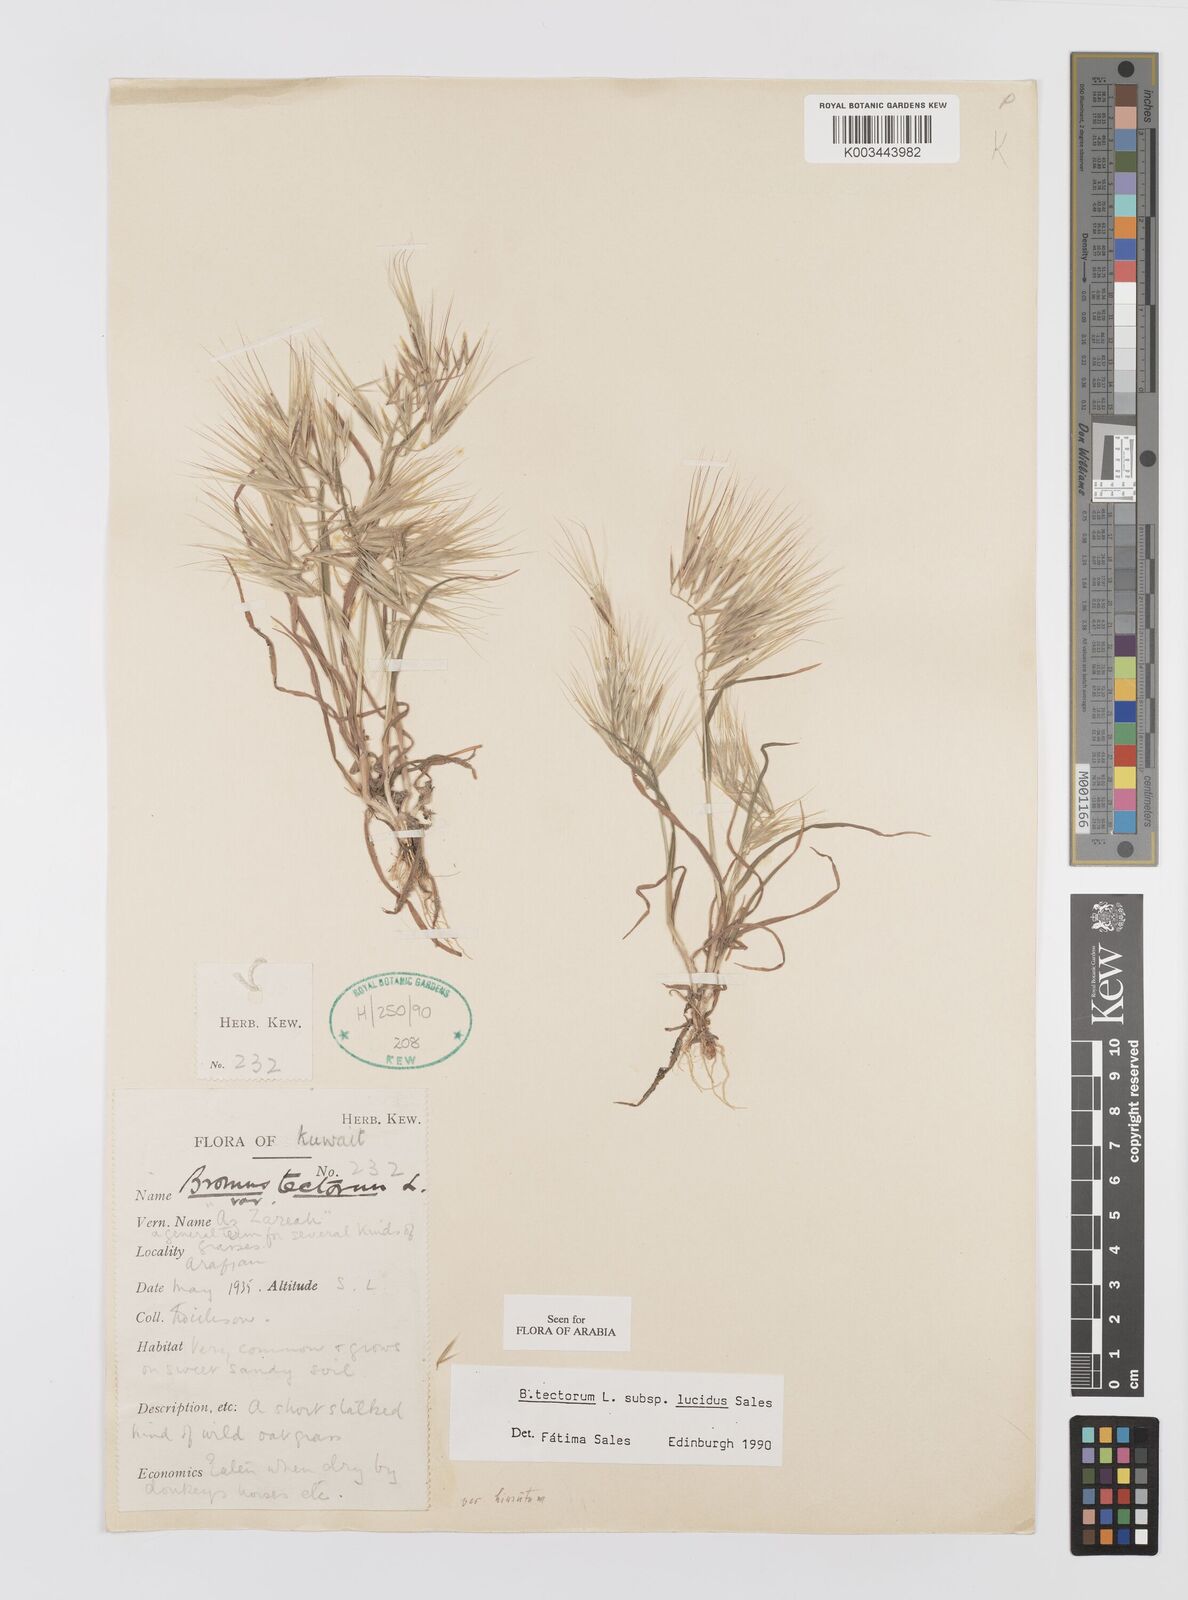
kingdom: Plantae
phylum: Tracheophyta
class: Liliopsida
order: Poales
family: Poaceae
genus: Bromus
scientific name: Bromus moeszii
